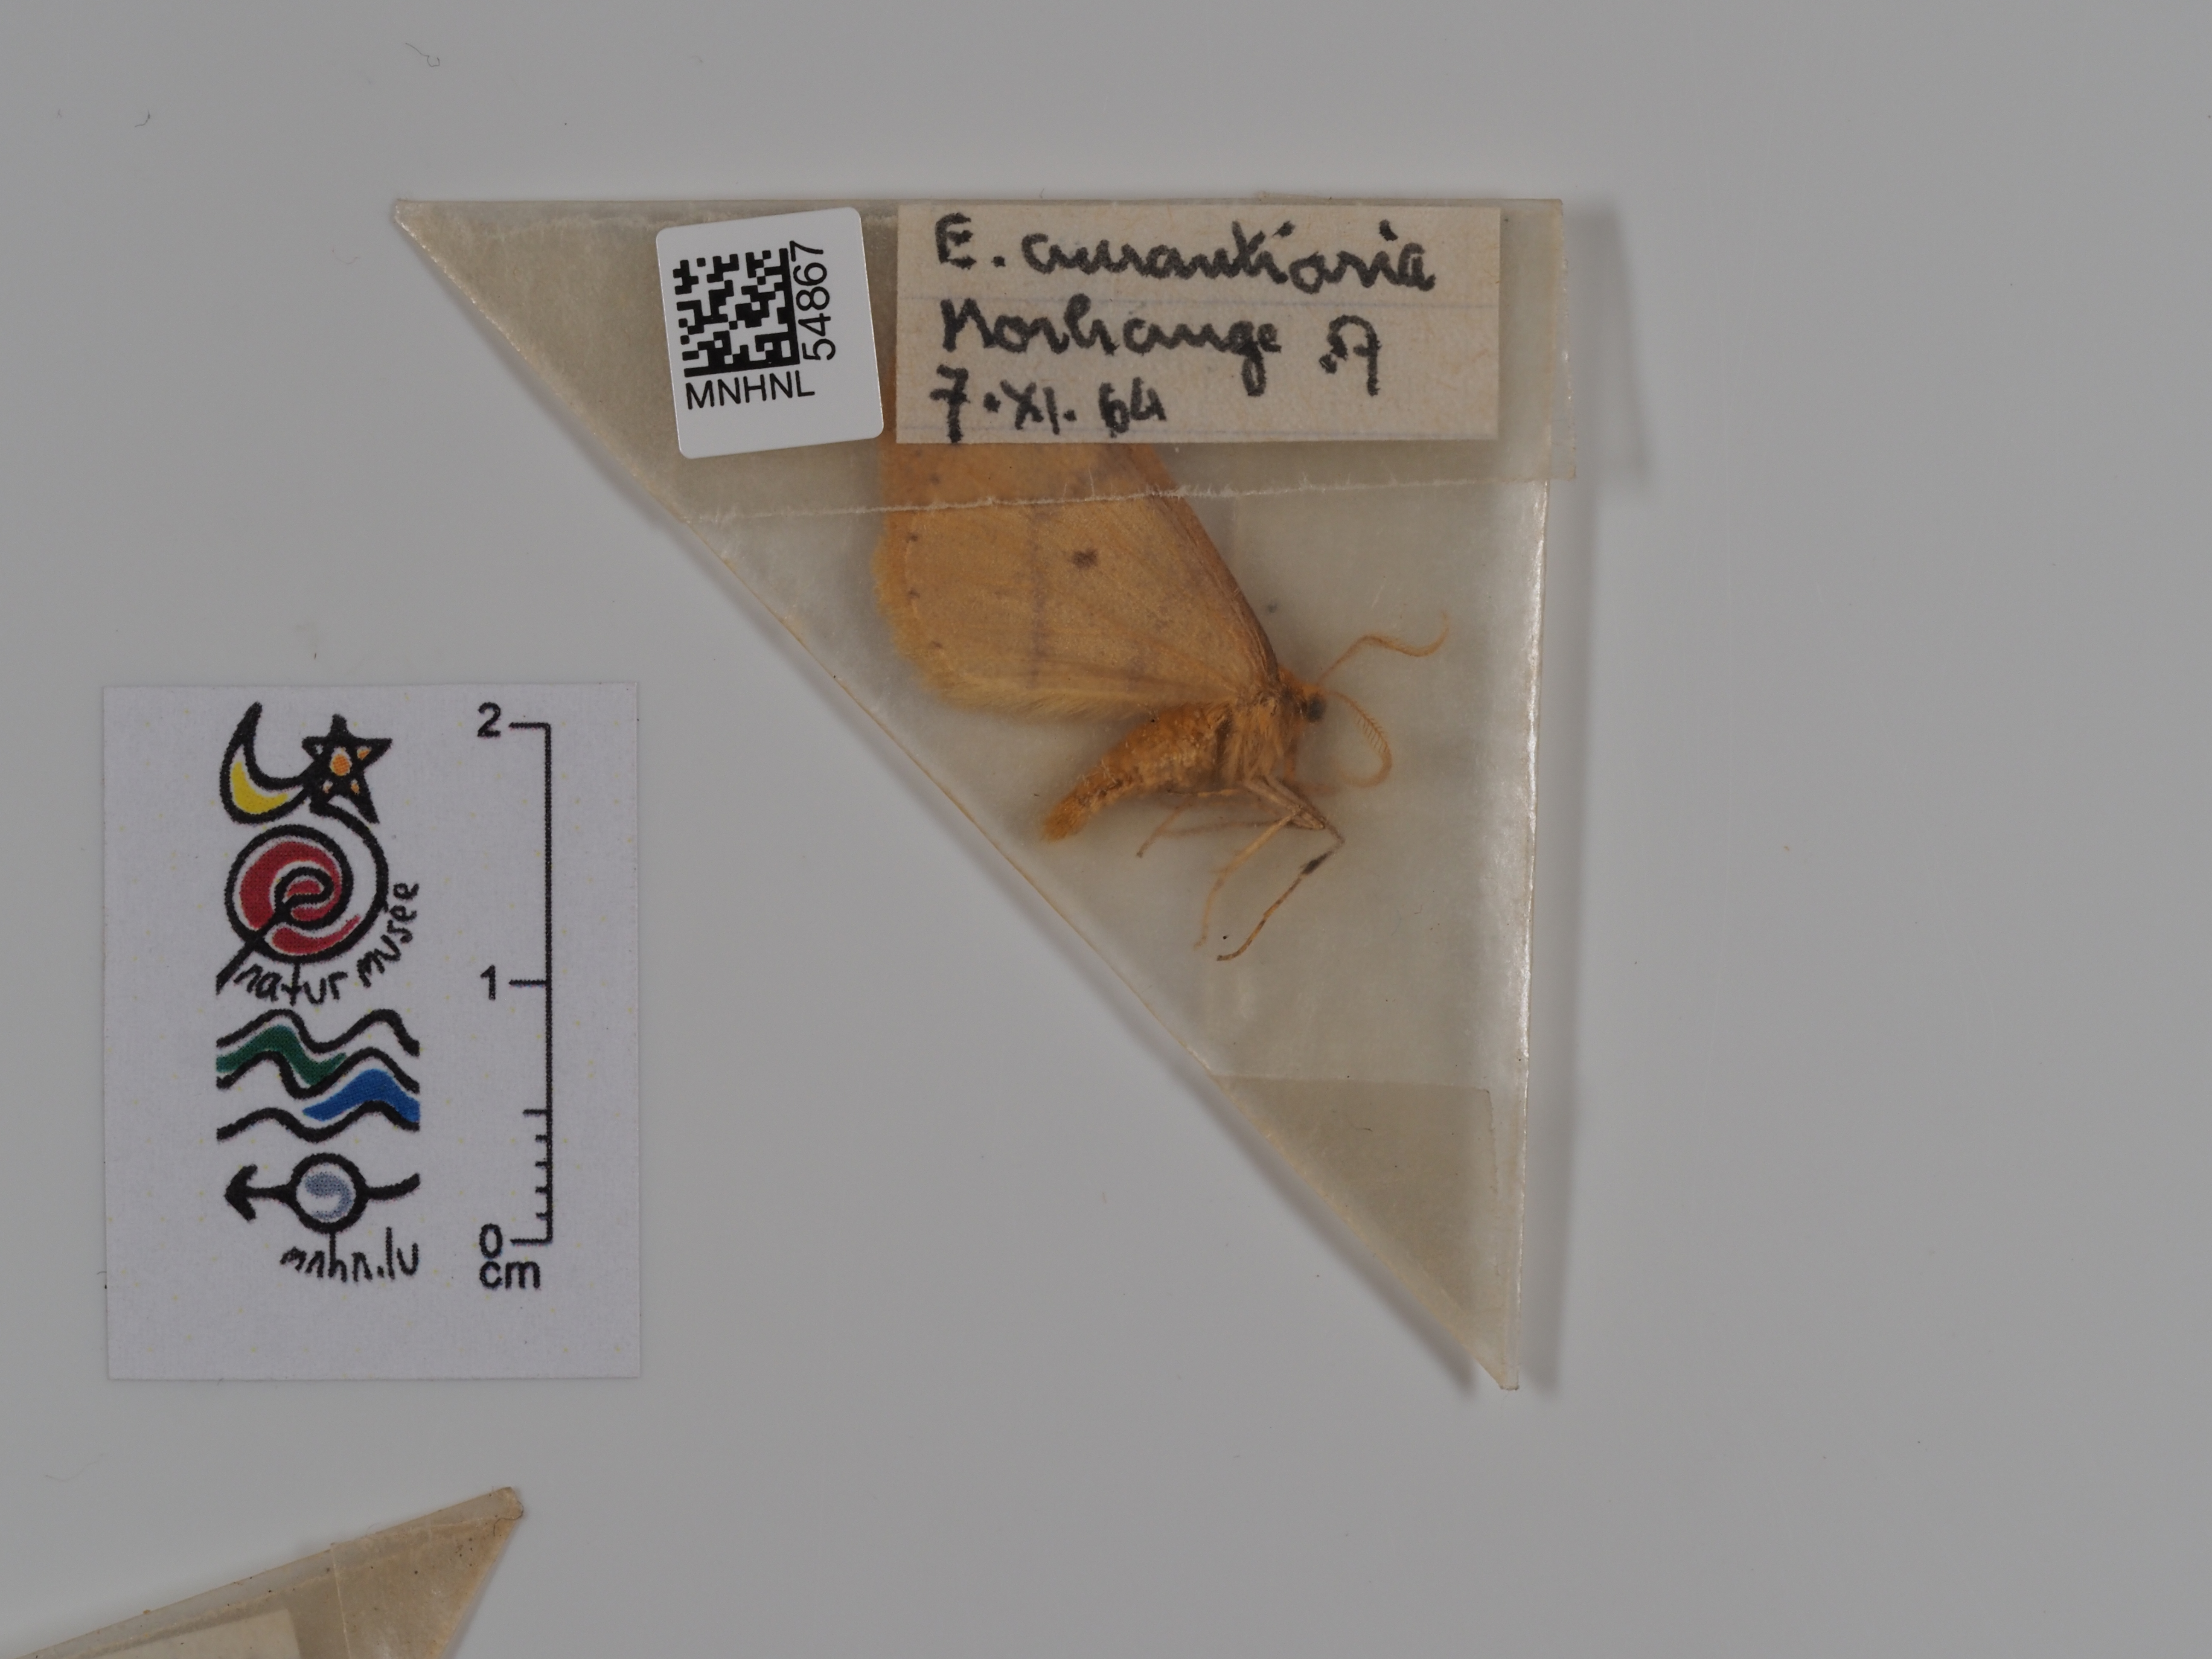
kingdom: Animalia
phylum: Arthropoda
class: Insecta
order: Lepidoptera
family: Geometridae
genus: Erannis
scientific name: Erannis
